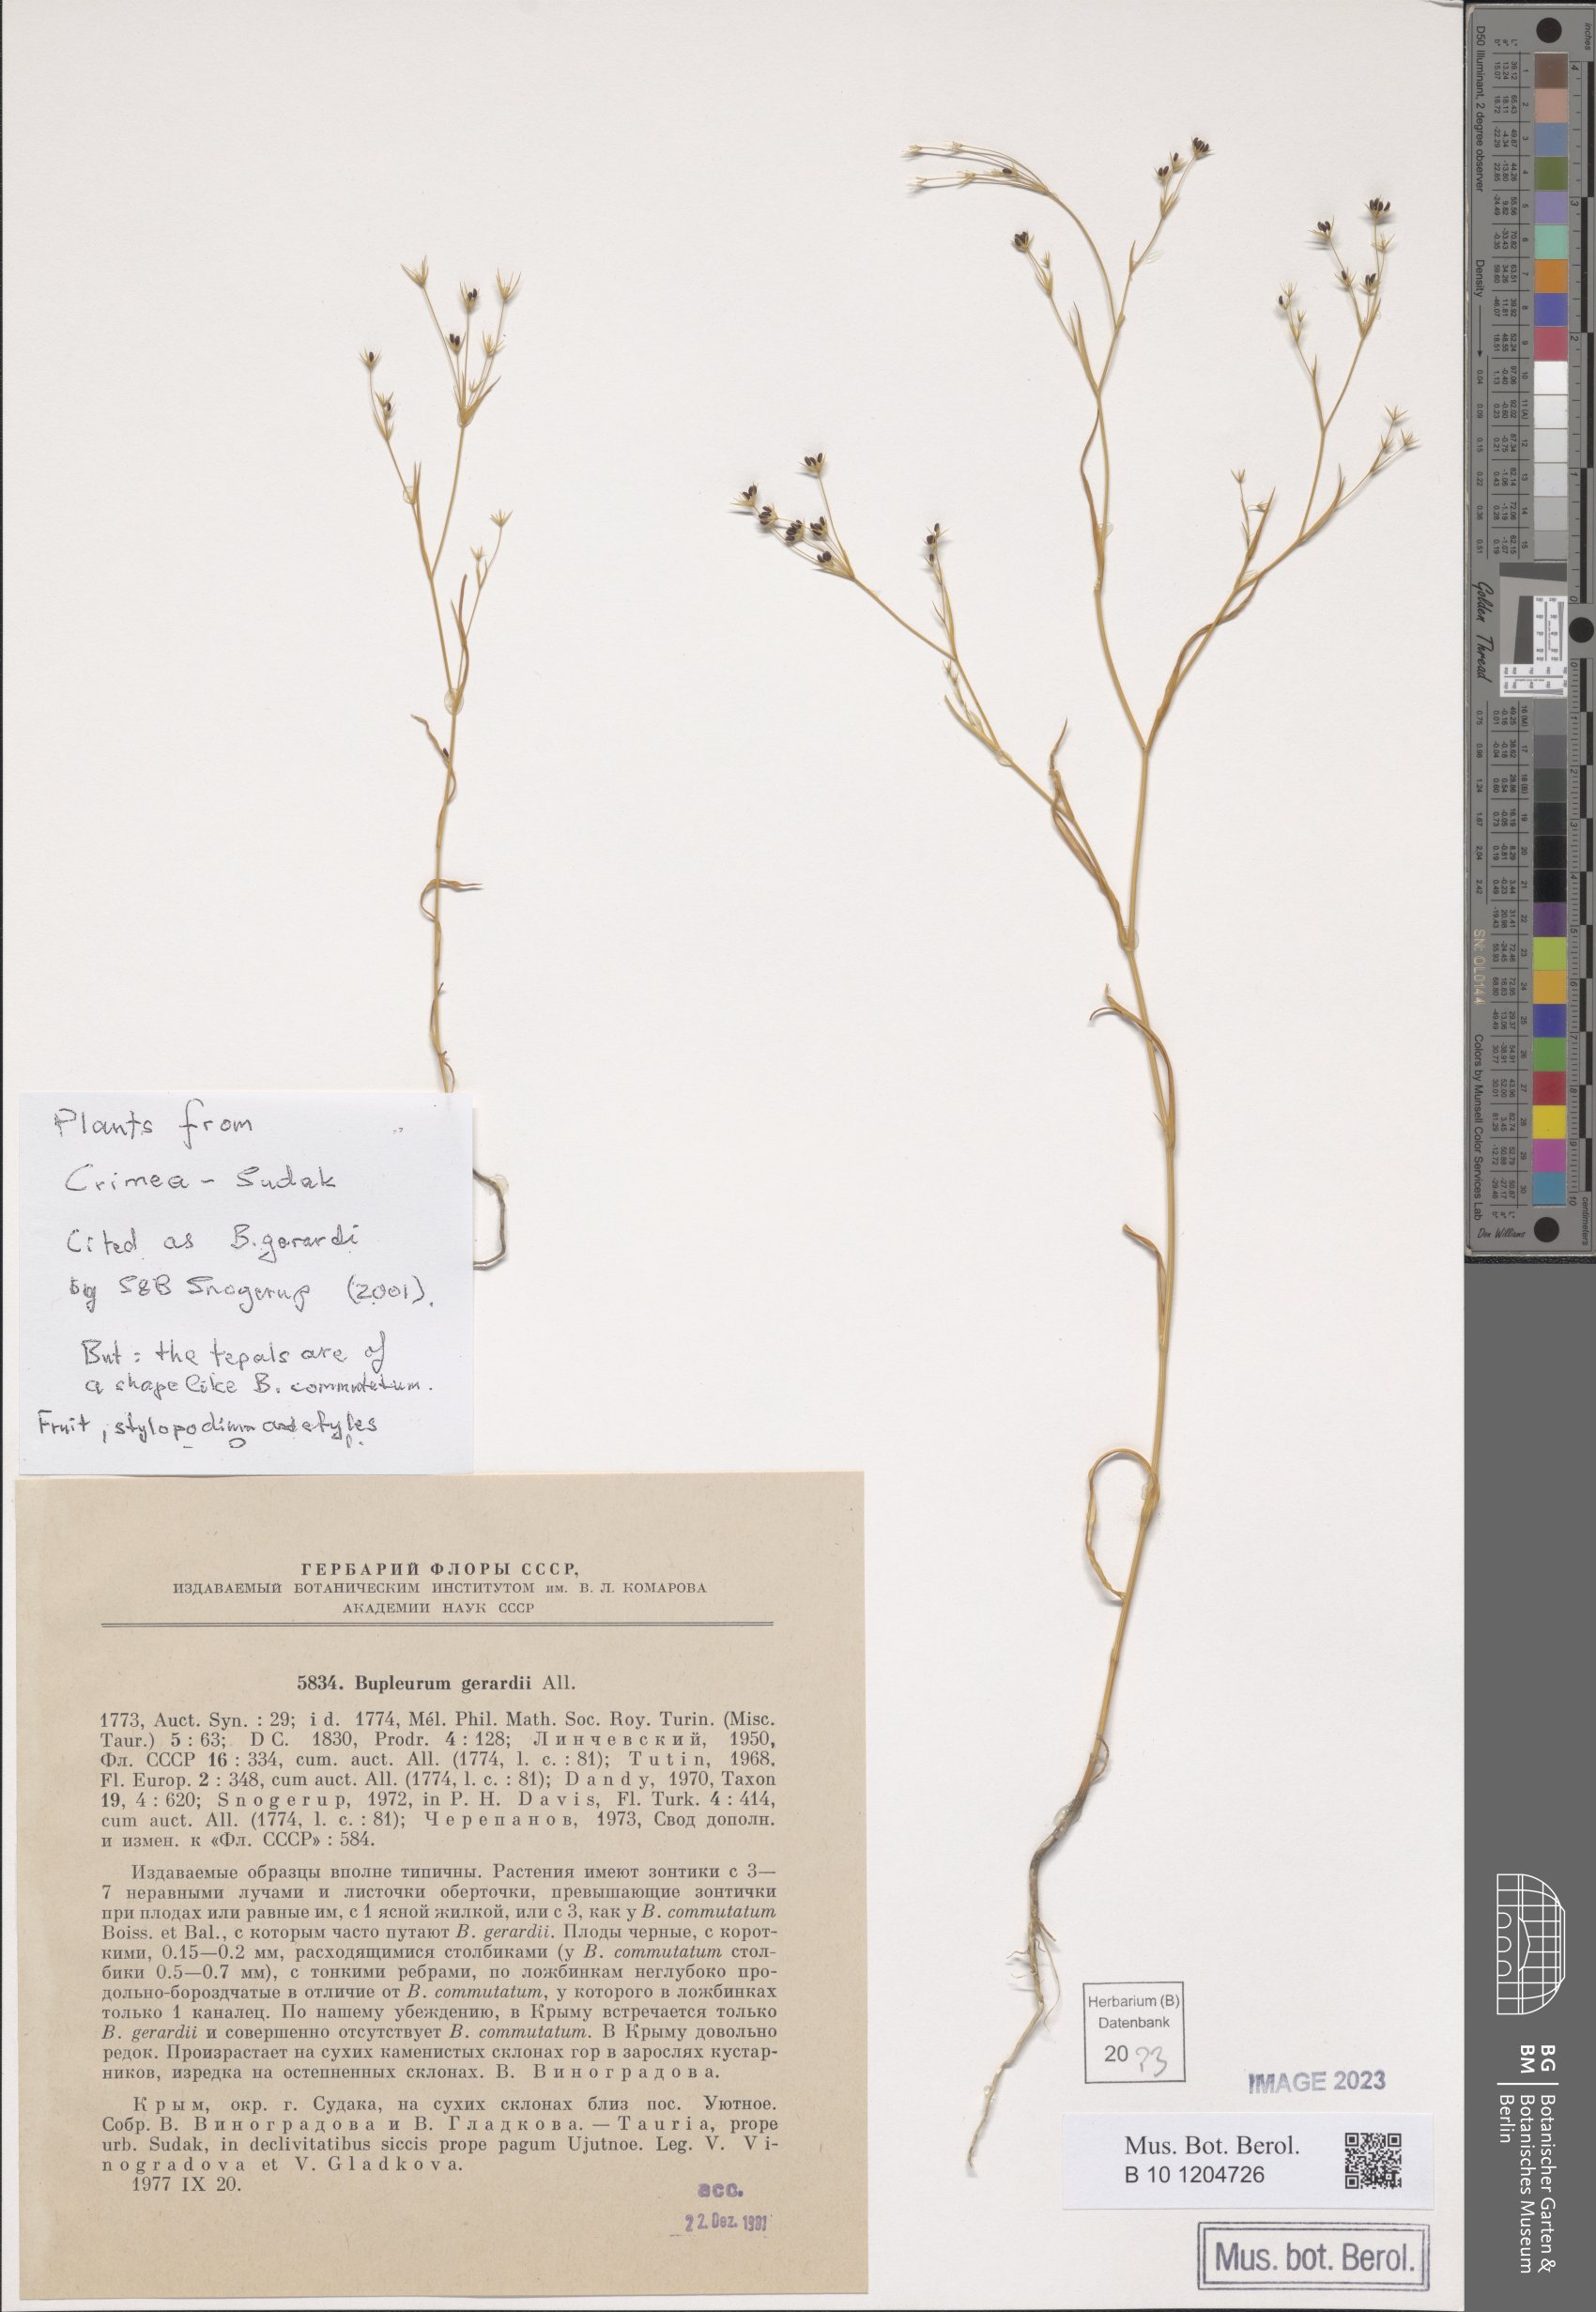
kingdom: Plantae
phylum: Tracheophyta
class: Magnoliopsida
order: Apiales
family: Apiaceae
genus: Bupleurum
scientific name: Bupleurum gerardi
